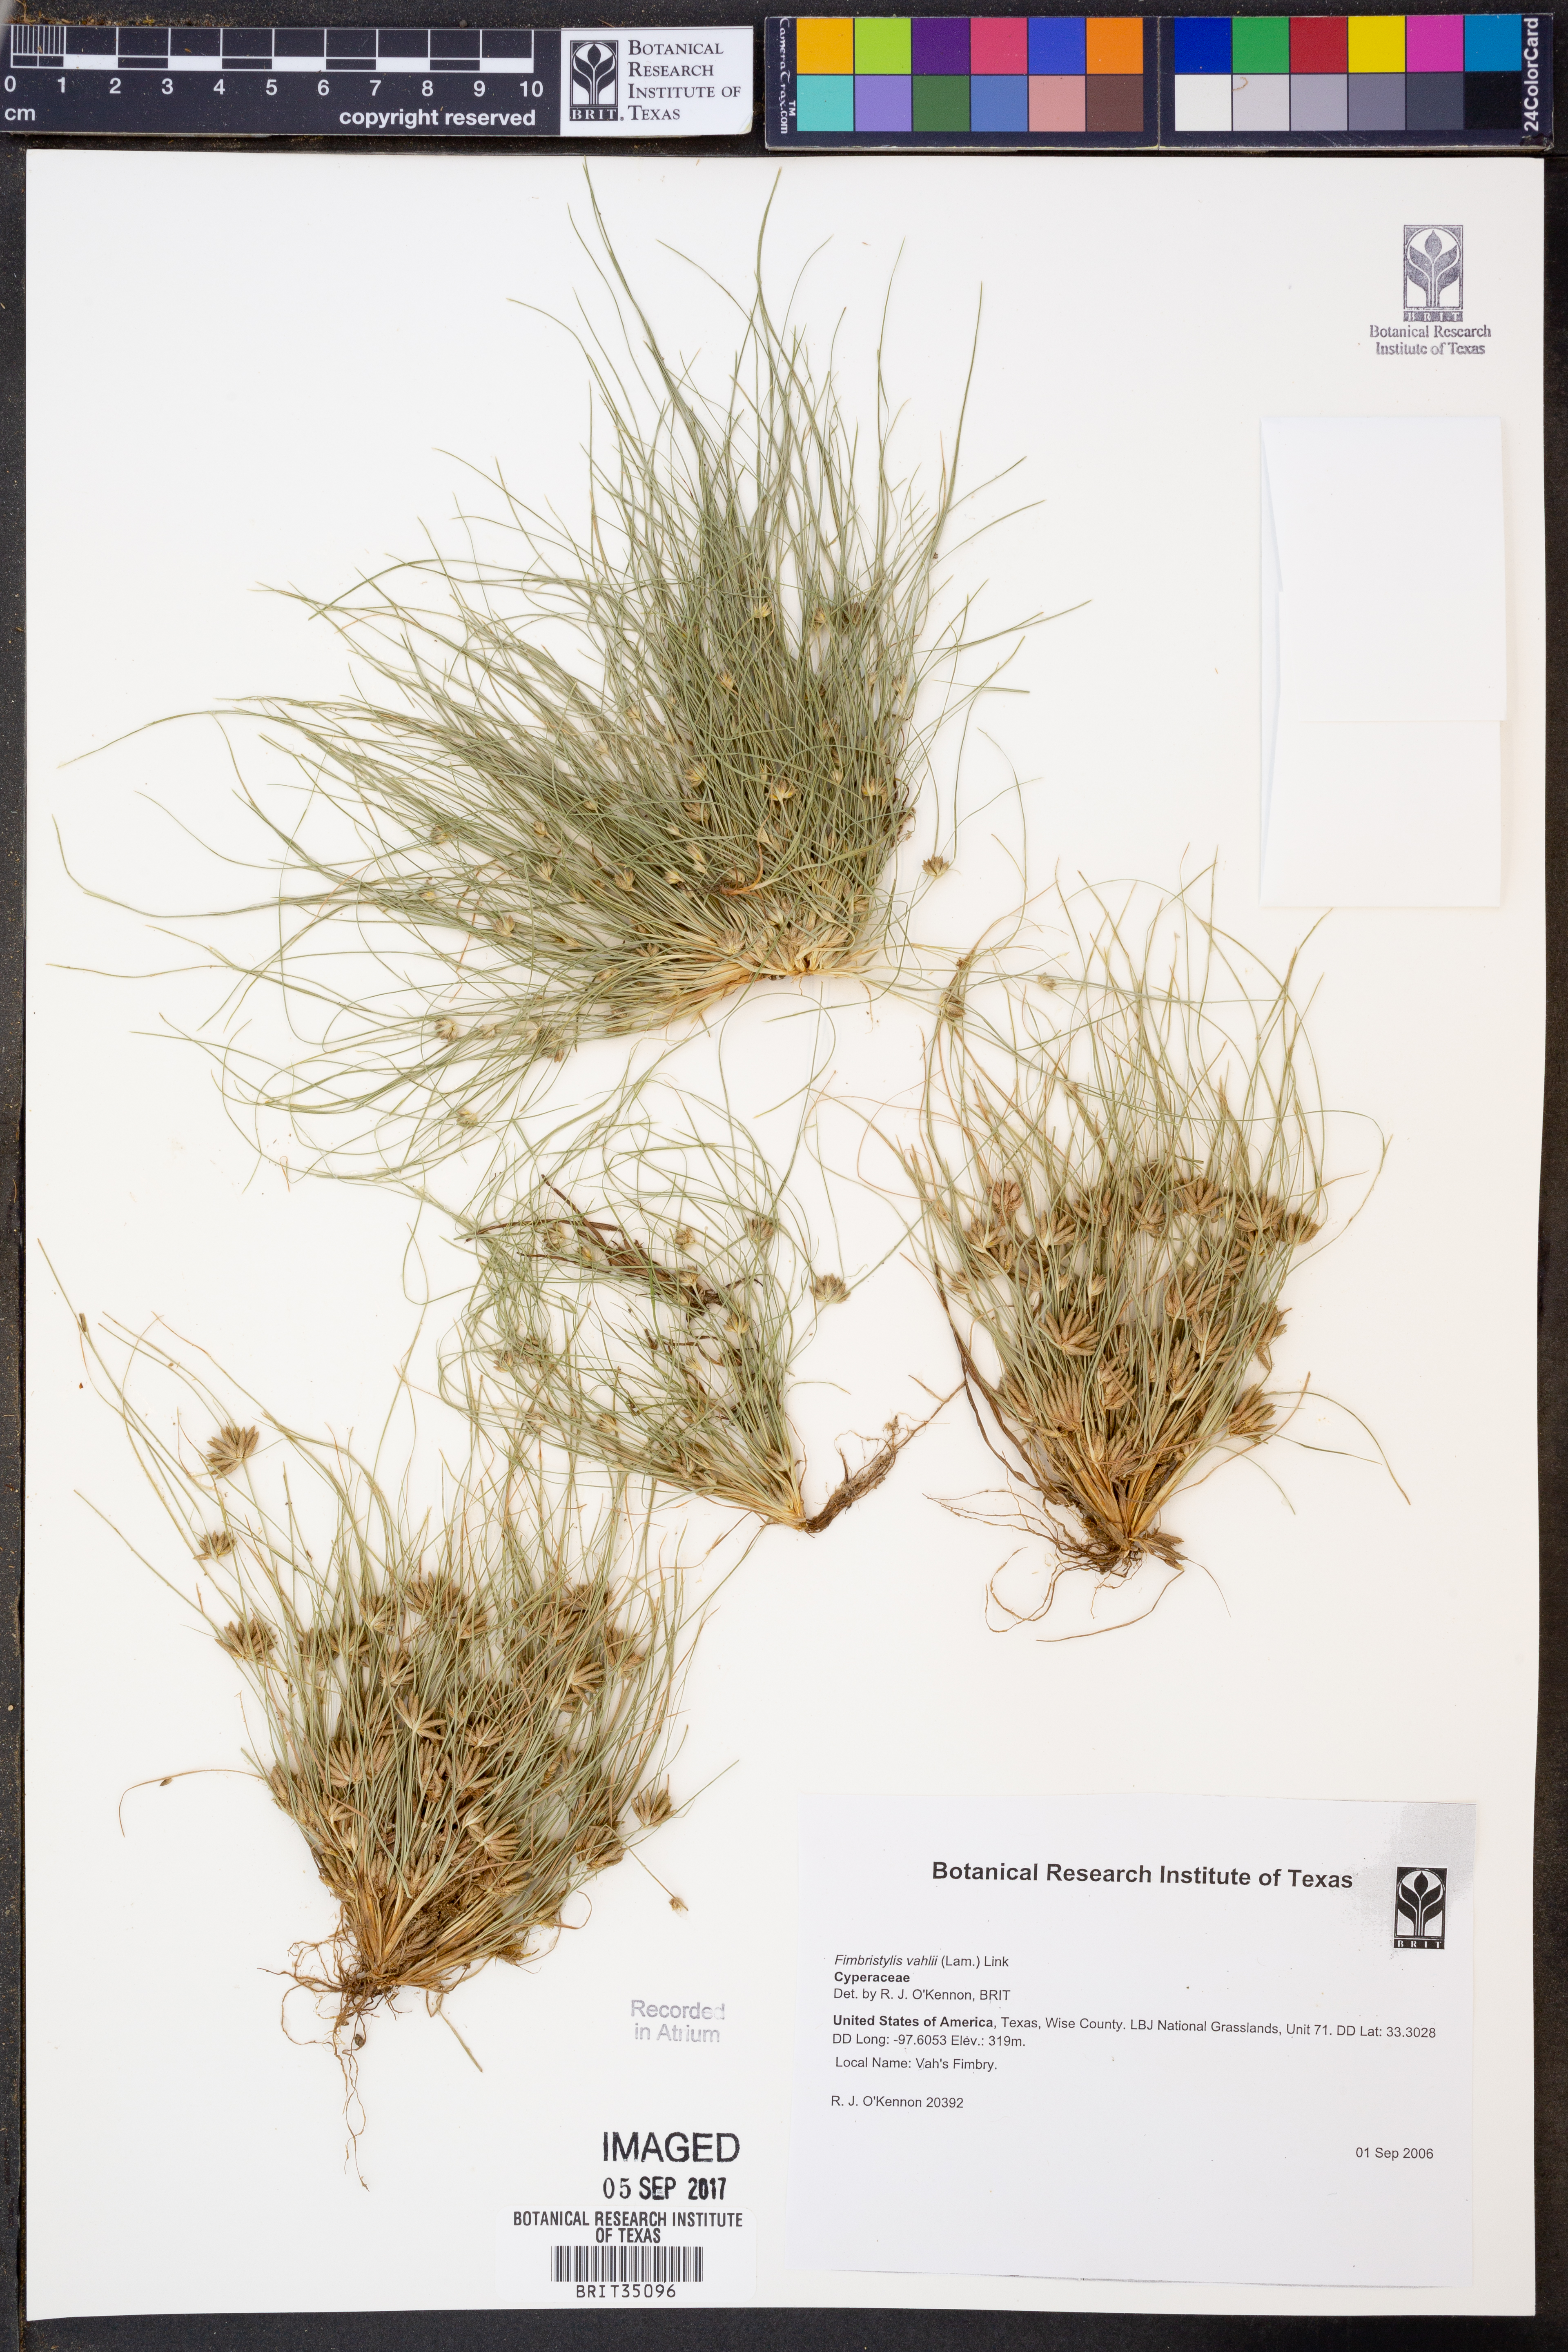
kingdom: Plantae
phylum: Tracheophyta
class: Liliopsida
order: Poales
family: Cyperaceae
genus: Fimbristylis
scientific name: Fimbristylis vahlii
